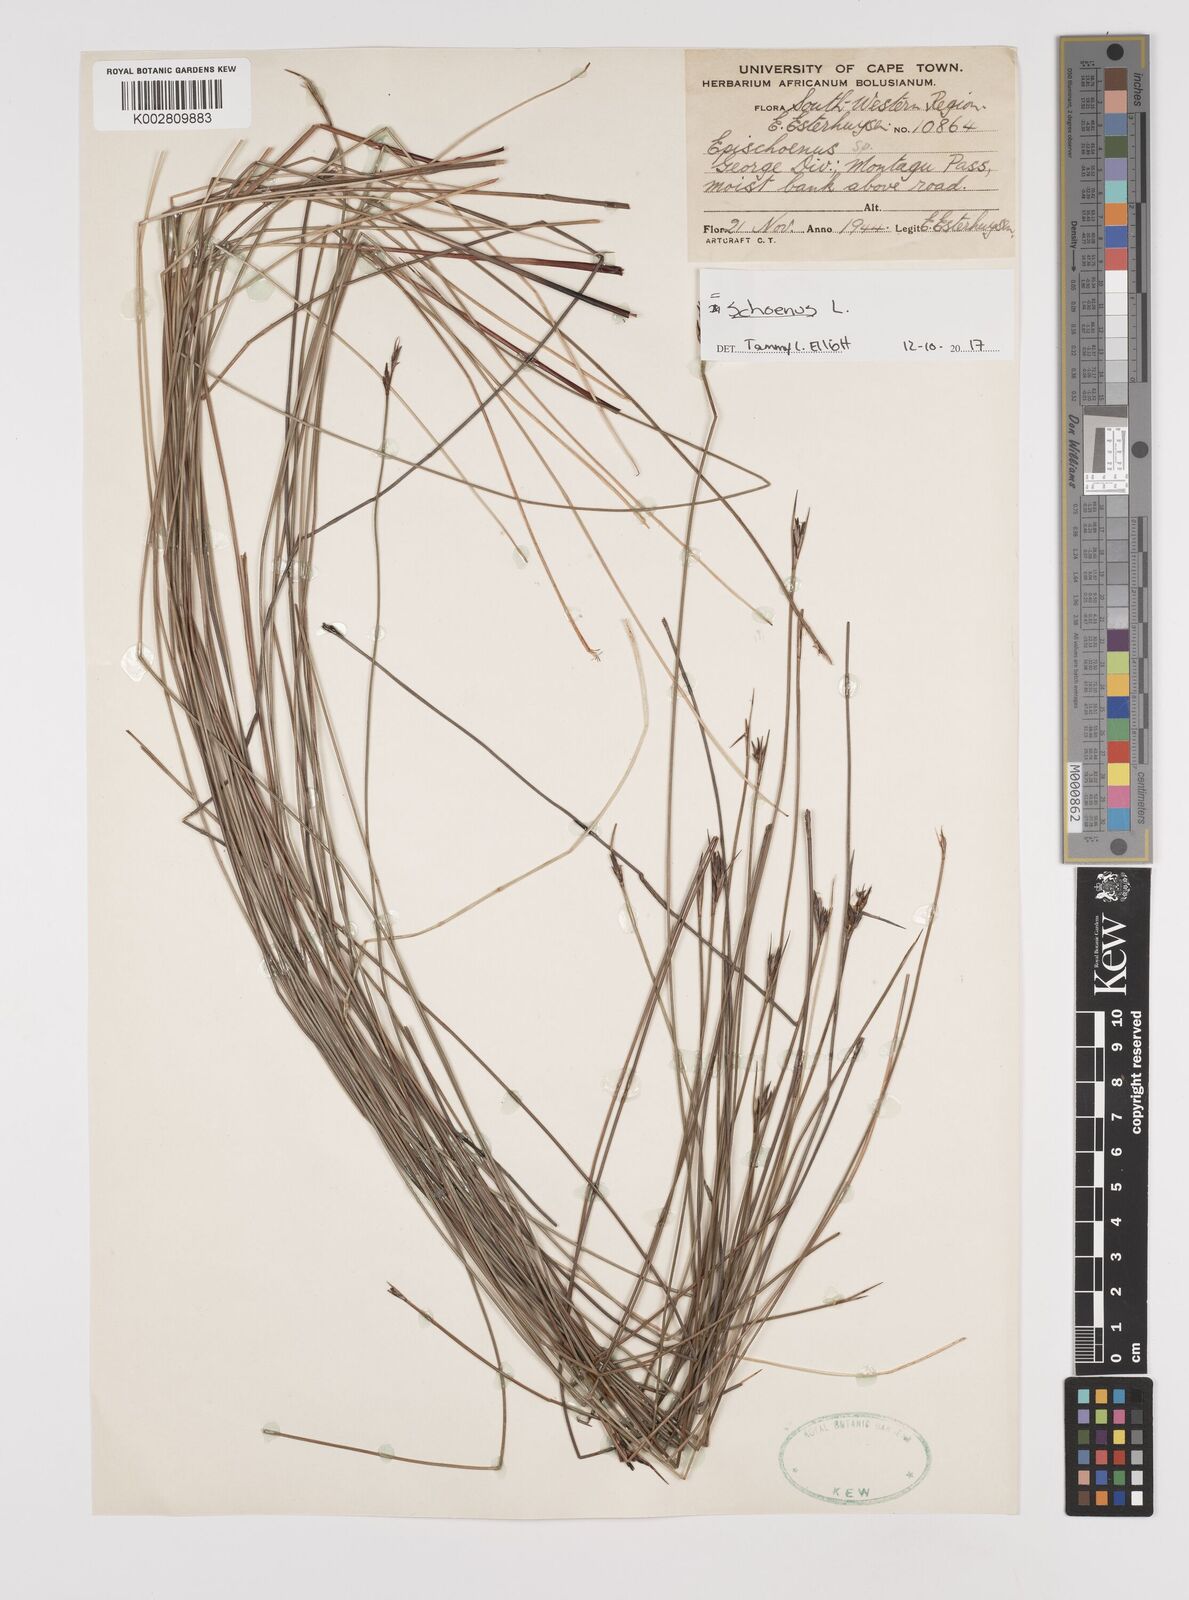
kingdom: Plantae
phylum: Tracheophyta
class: Liliopsida
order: Poales
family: Cyperaceae
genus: Schoenus
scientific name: Schoenus
